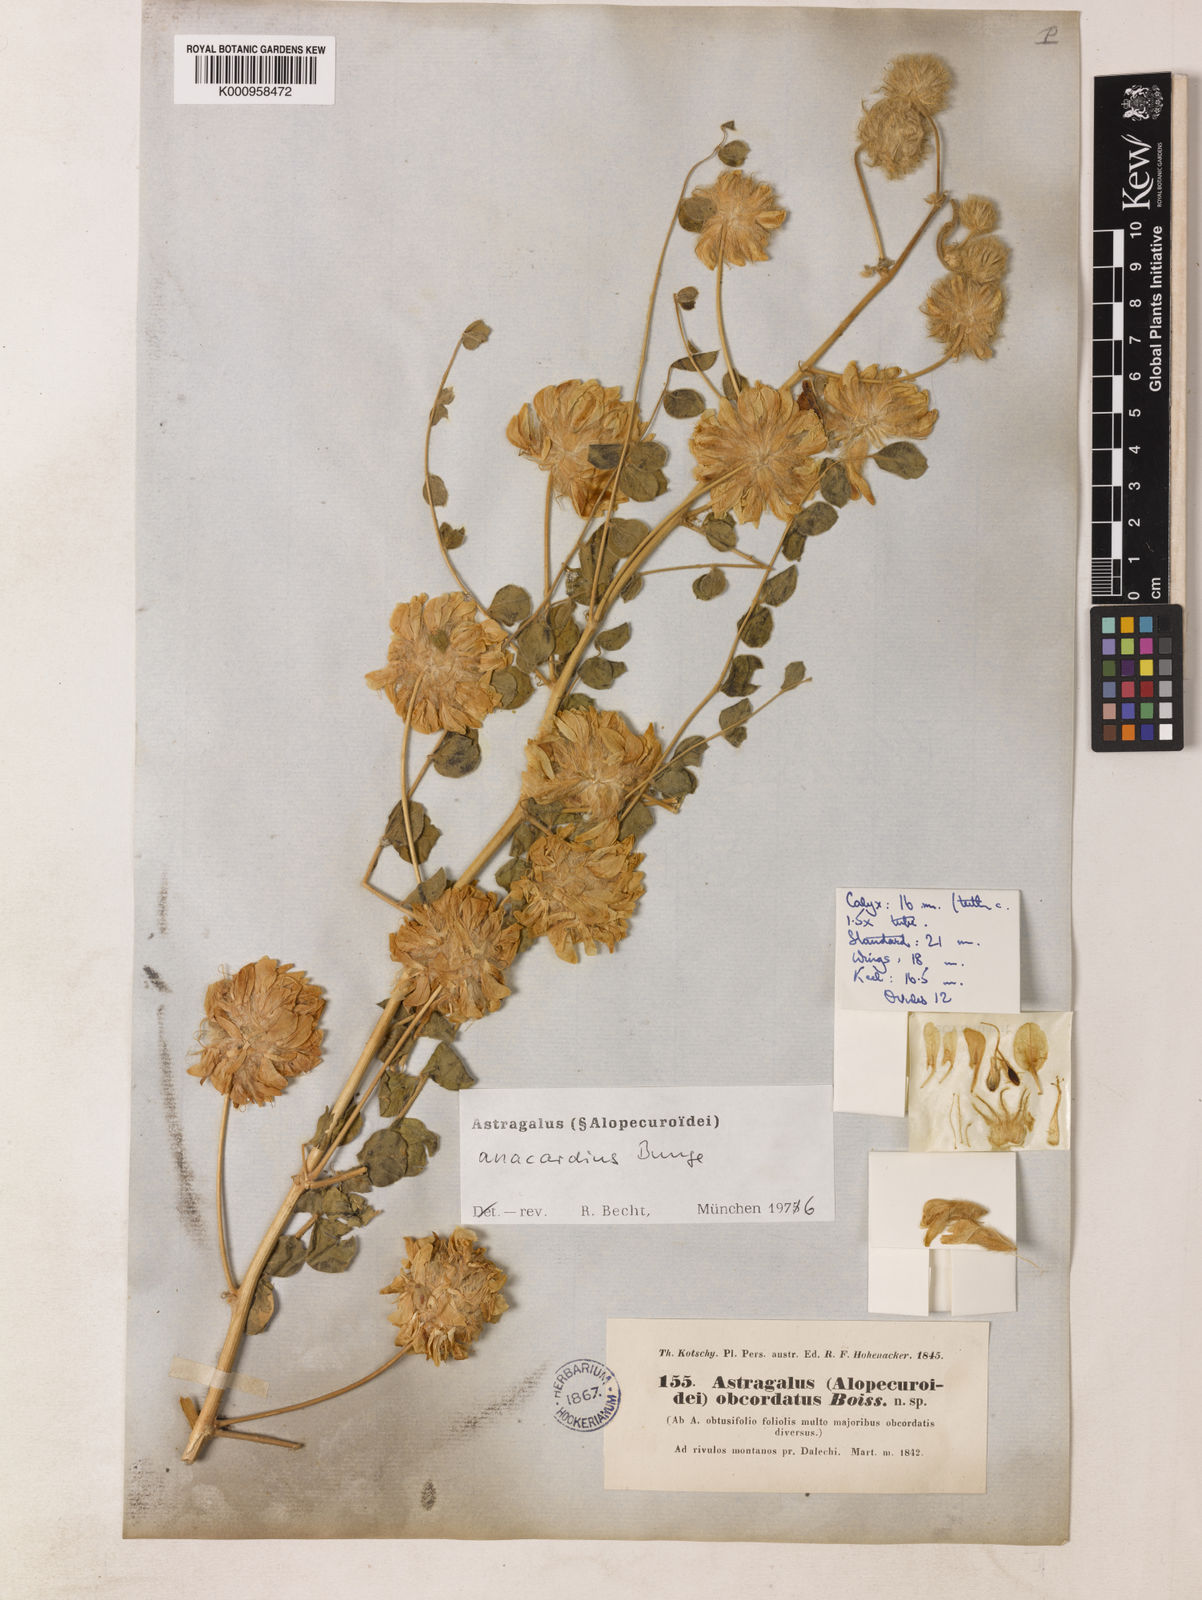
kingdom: Plantae
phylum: Tracheophyta
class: Magnoliopsida
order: Fabales
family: Fabaceae
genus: Astragalus
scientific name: Astragalus obtusifolius
